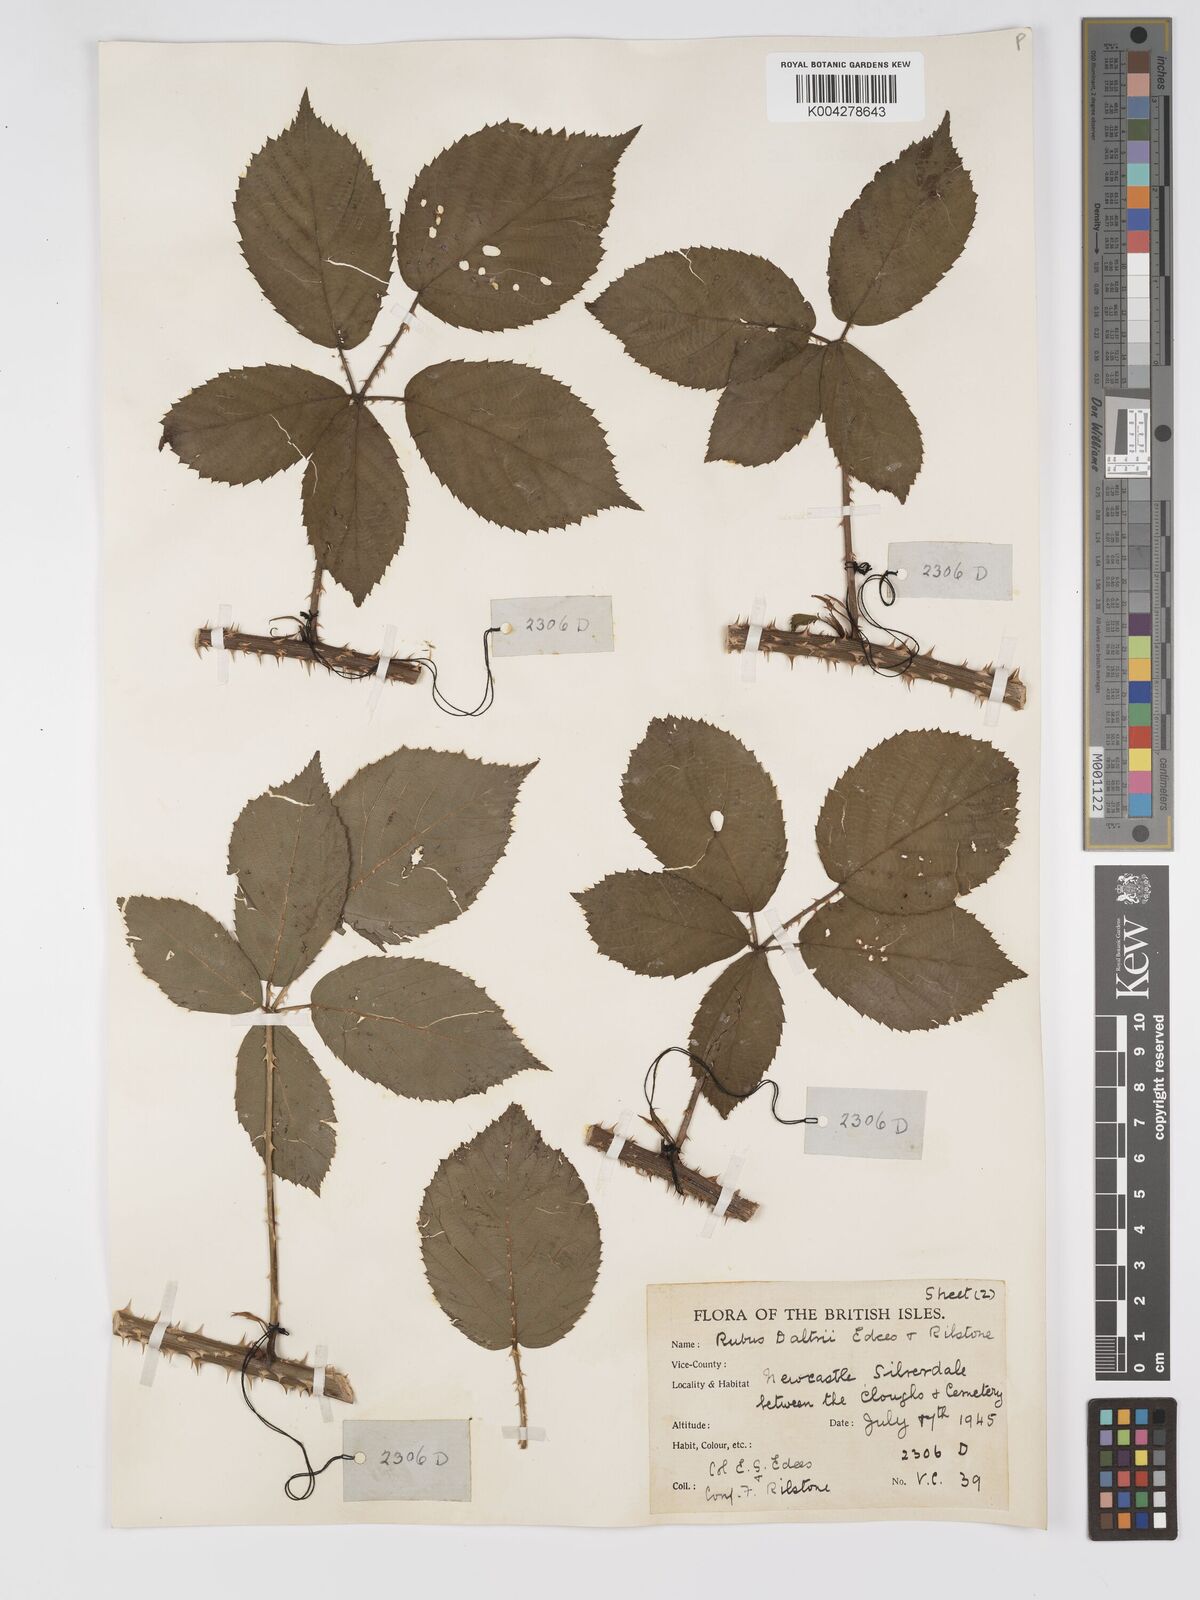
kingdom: Plantae
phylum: Tracheophyta
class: Magnoliopsida
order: Rosales
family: Rosaceae
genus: Rubus
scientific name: Rubus daltrii
